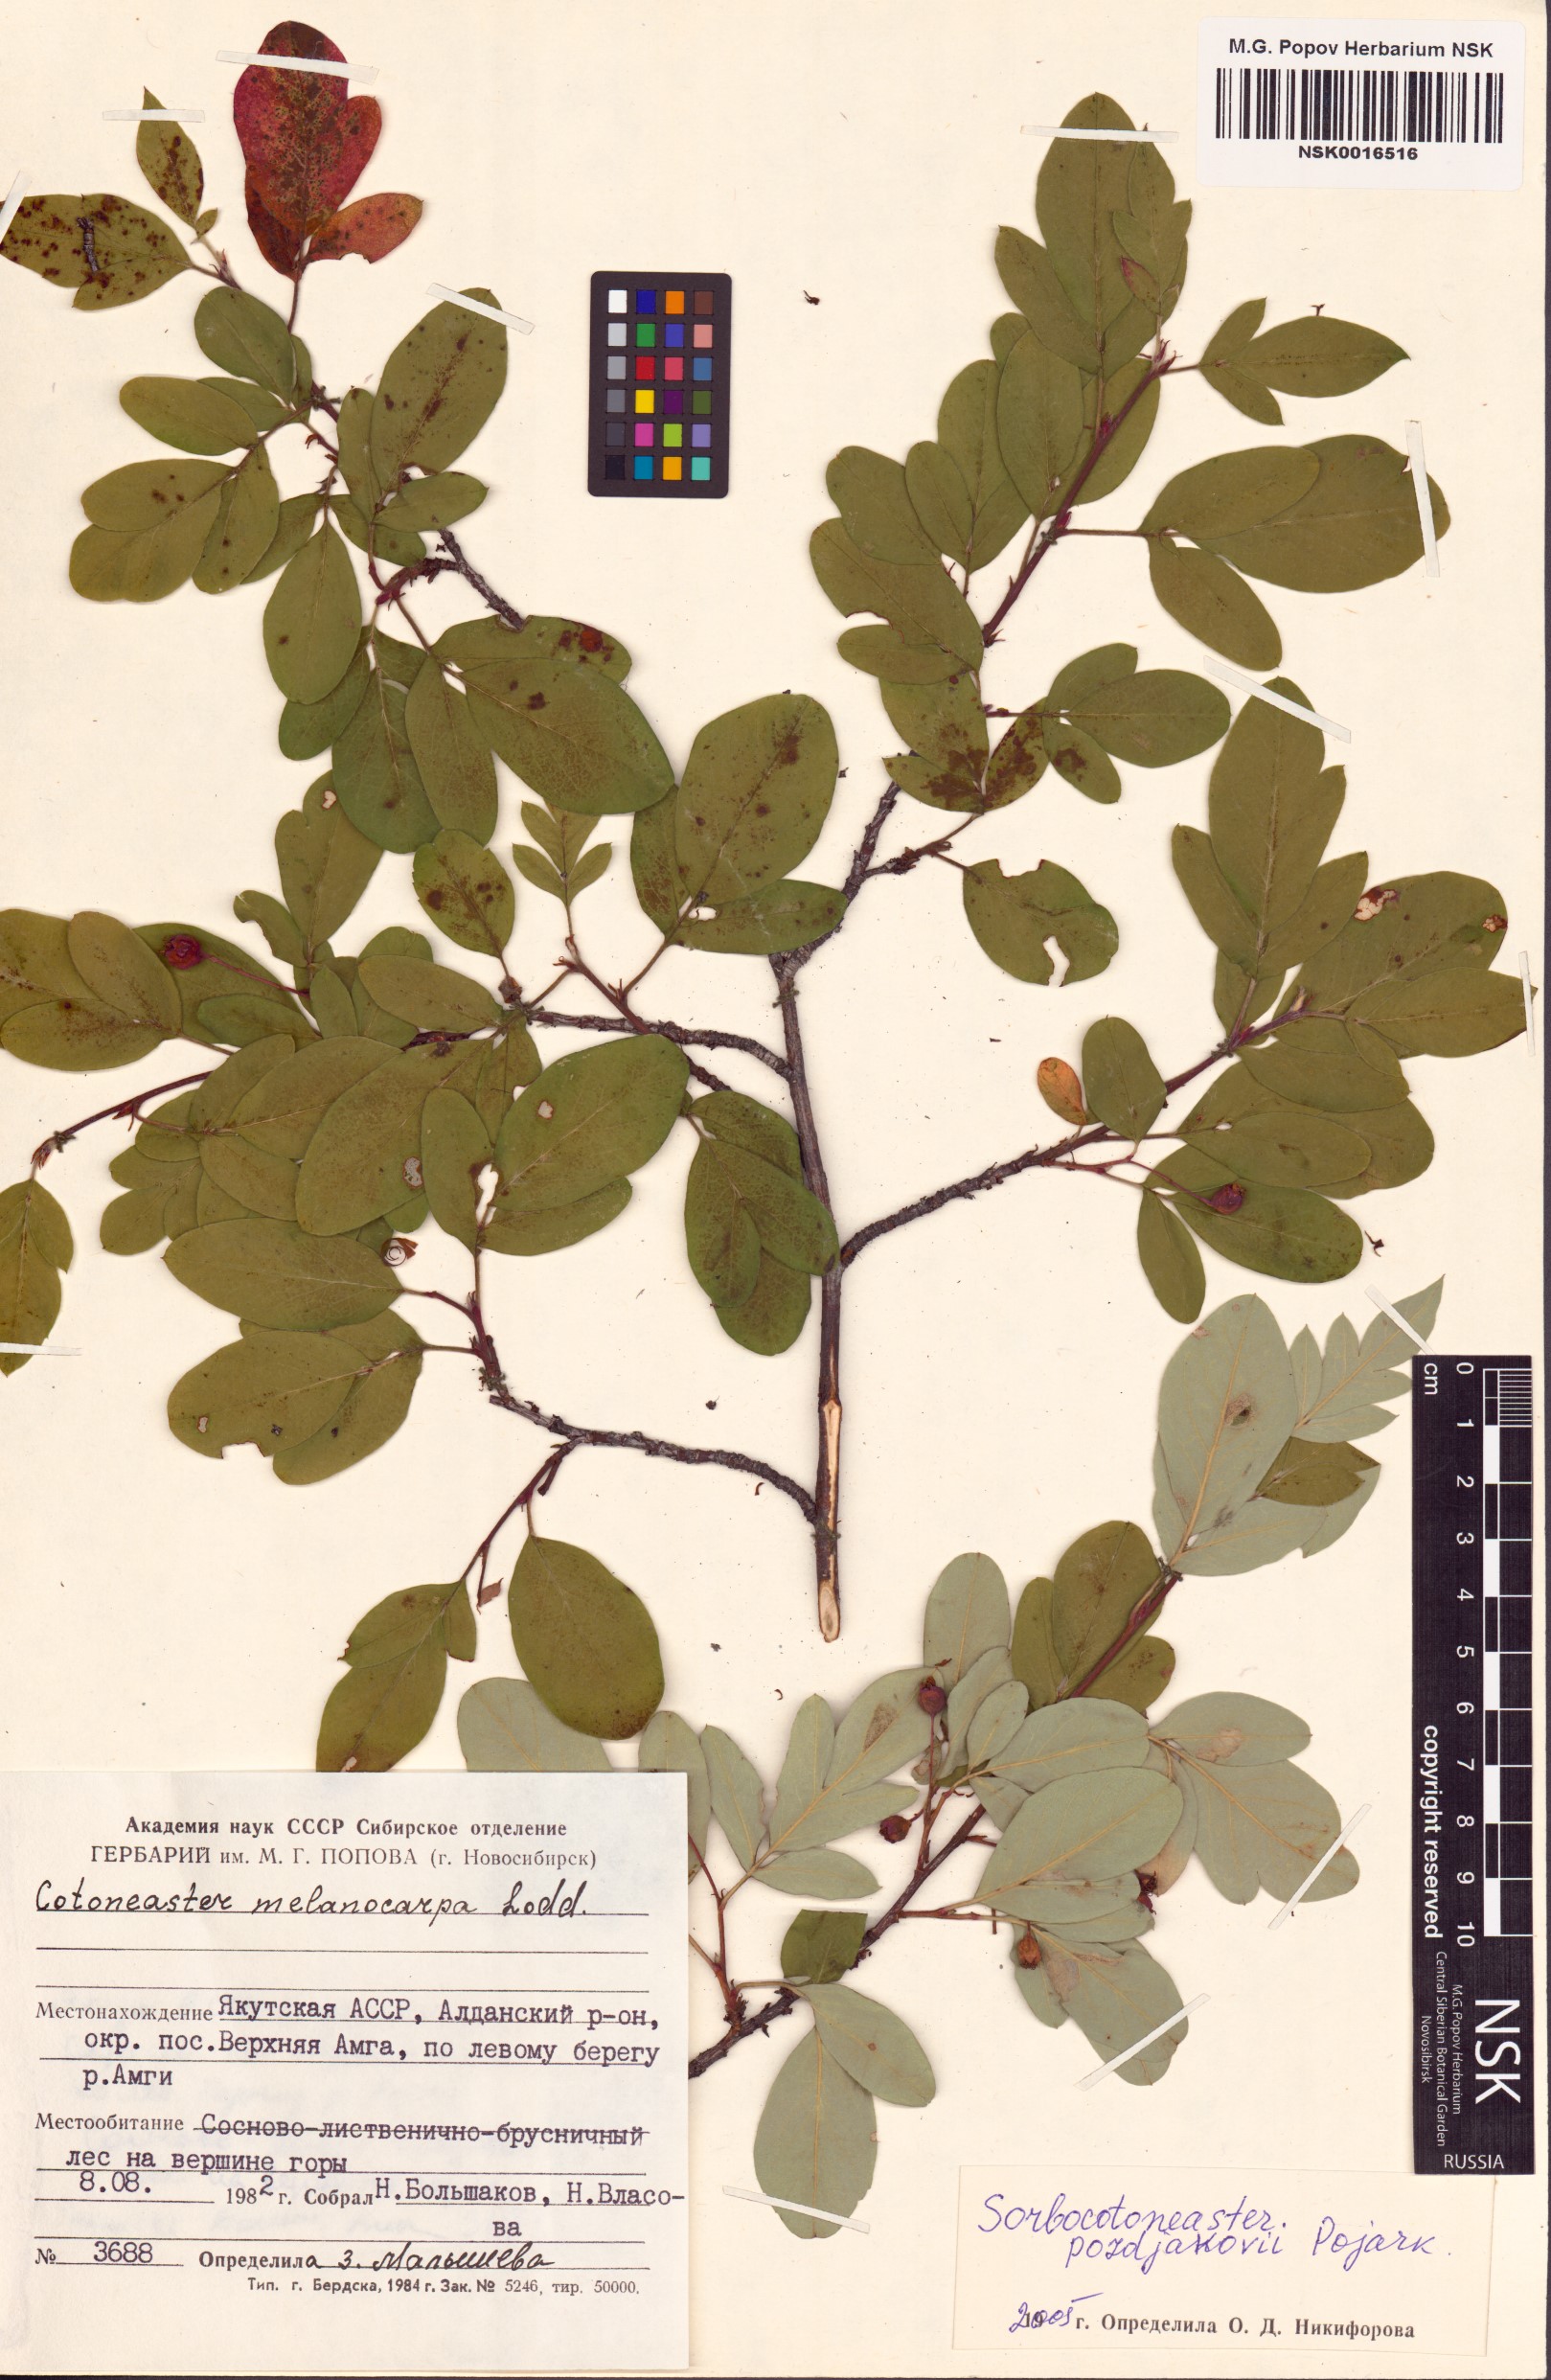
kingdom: Plantae
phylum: Tracheophyta
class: Magnoliopsida
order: Rosales
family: Rosaceae
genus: Sorbocotoneaster
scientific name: Sorbocotoneaster pozdnjakovii
